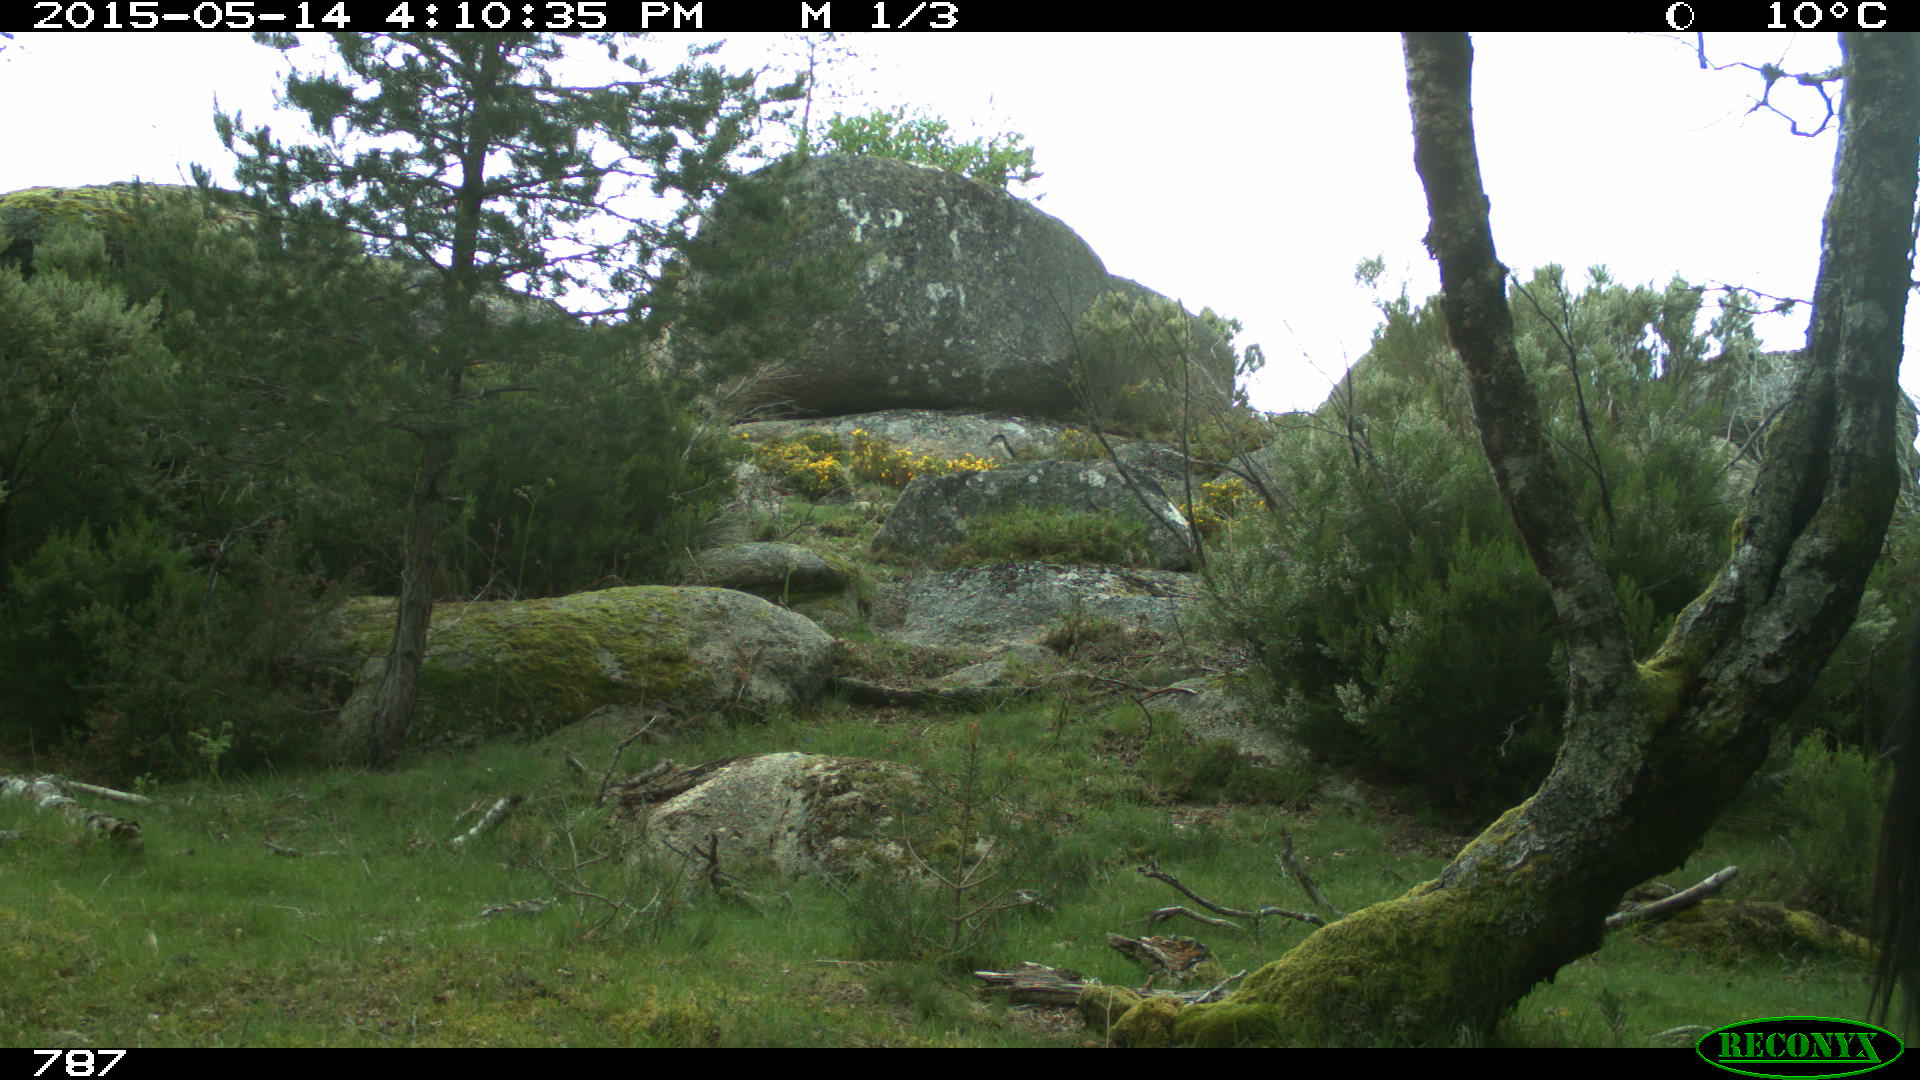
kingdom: Animalia
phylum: Chordata
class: Mammalia
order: Perissodactyla
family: Equidae
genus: Equus
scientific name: Equus caballus
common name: Horse
